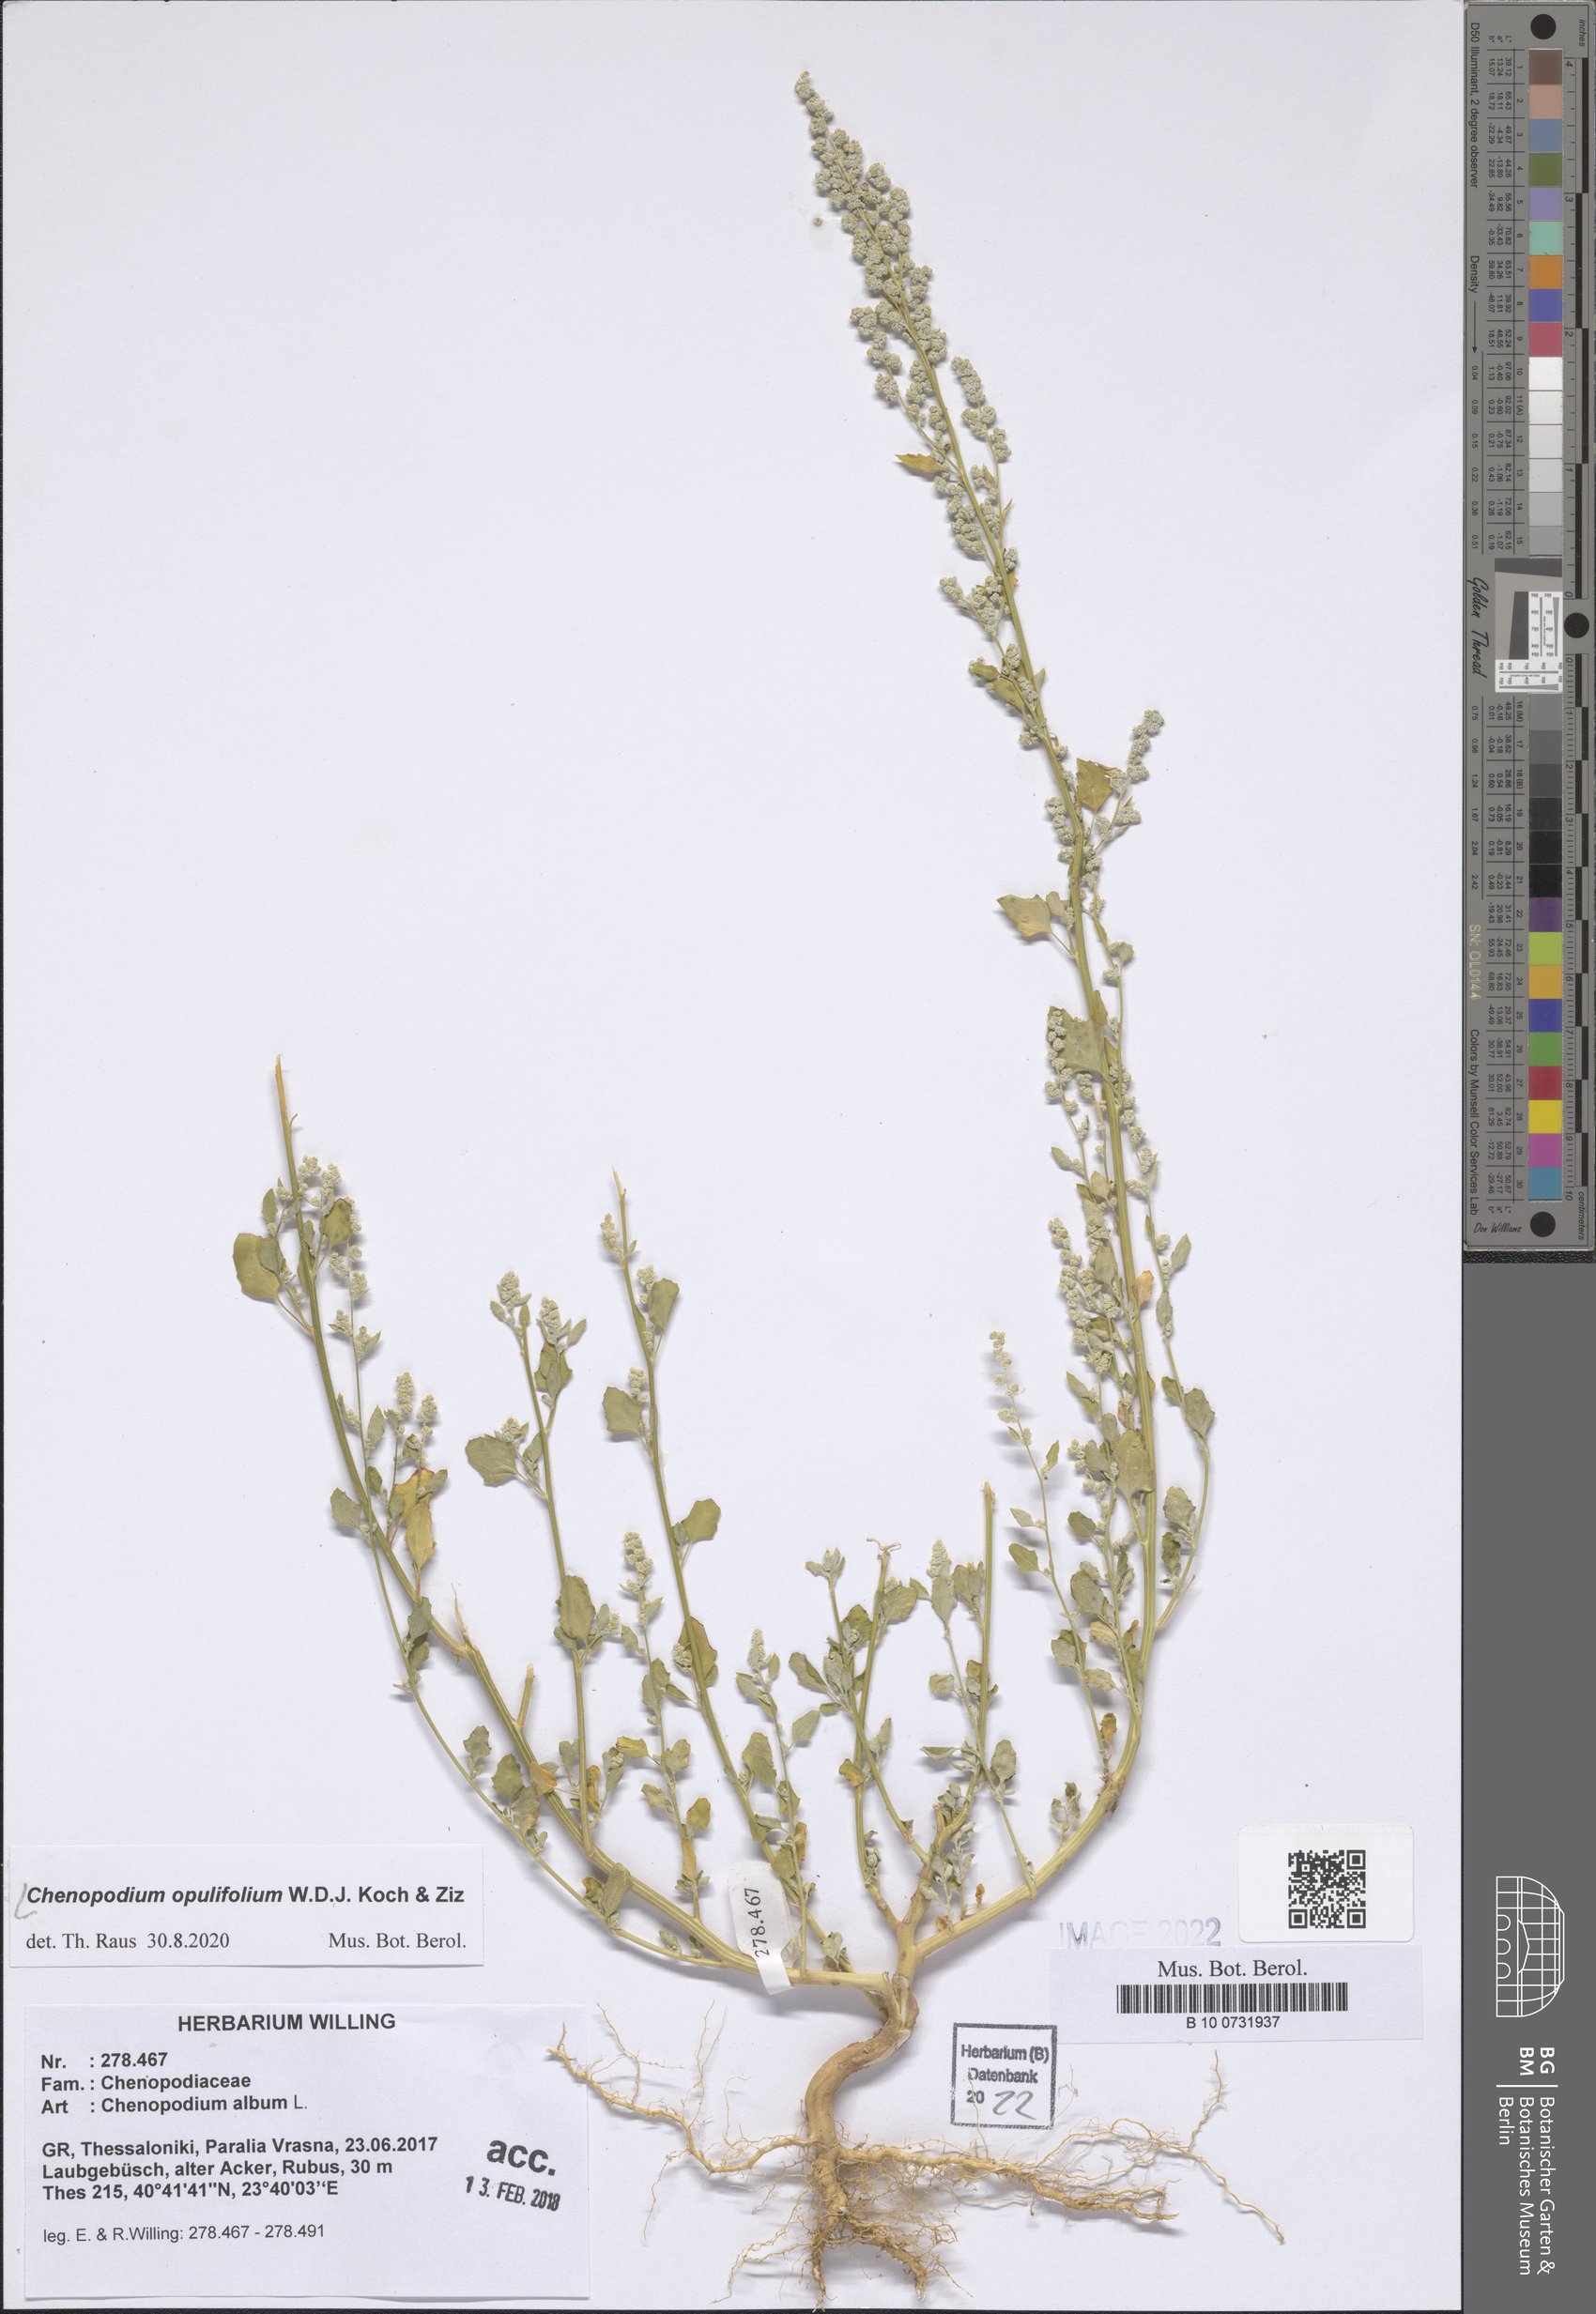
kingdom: Plantae
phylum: Tracheophyta
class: Magnoliopsida
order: Caryophyllales
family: Amaranthaceae
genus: Chenopodium
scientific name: Chenopodium opulifolium
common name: Grey goosefoot
